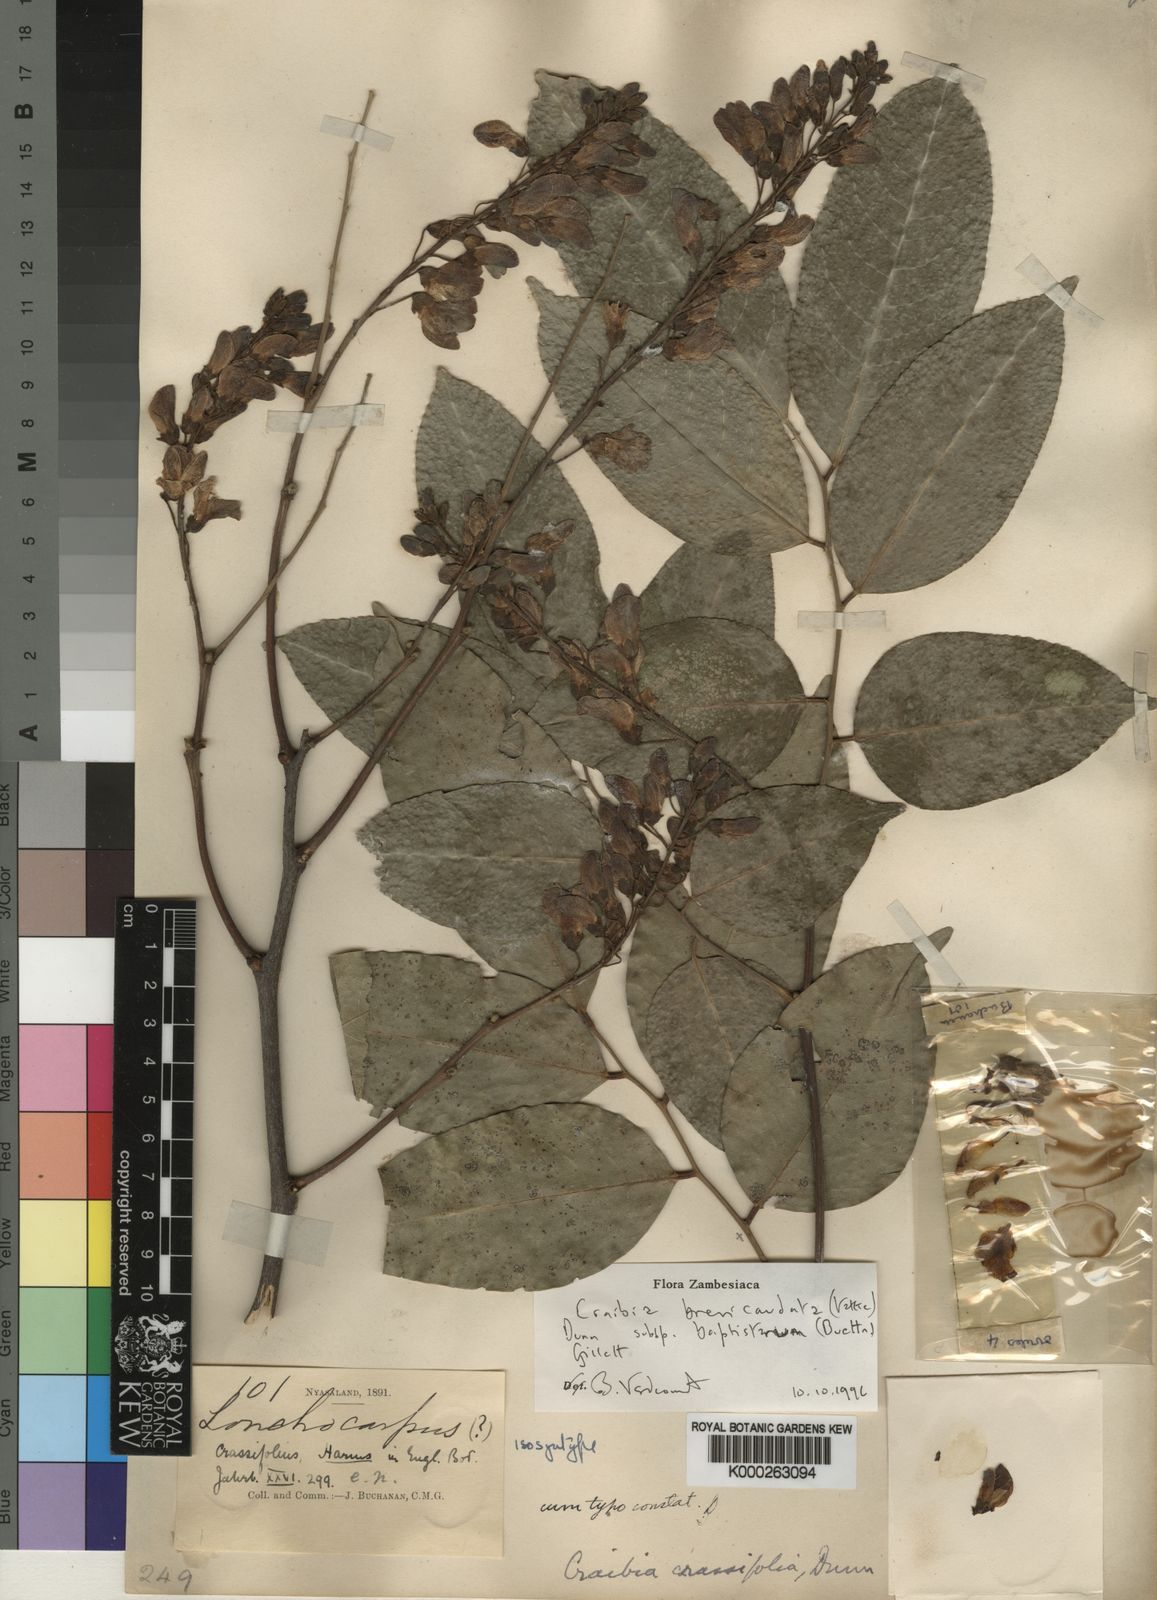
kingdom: Plantae
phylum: Tracheophyta
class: Magnoliopsida
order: Fabales
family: Fabaceae
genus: Craibia
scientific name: Craibia brevicaudata
